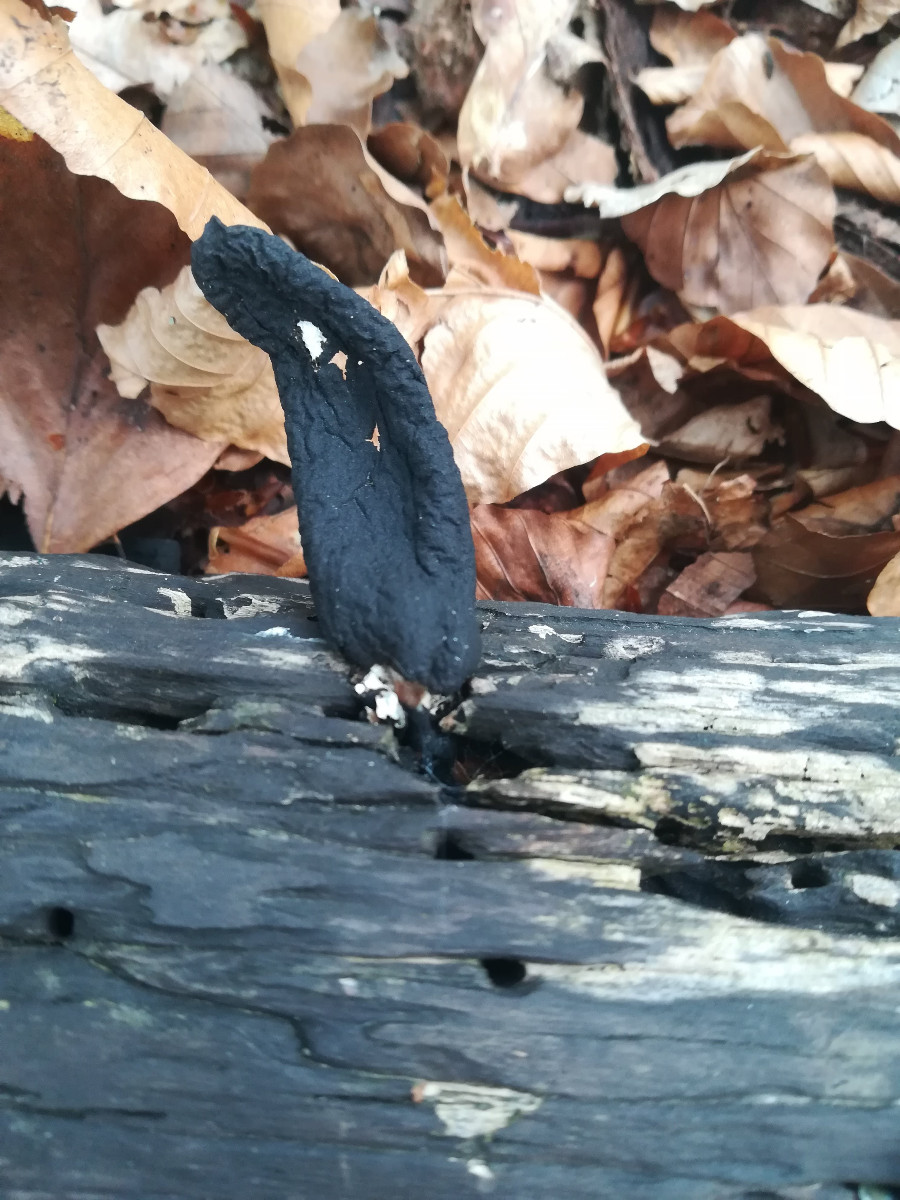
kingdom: Fungi
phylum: Ascomycota
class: Sordariomycetes
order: Xylariales
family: Xylariaceae
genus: Xylaria
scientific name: Xylaria polymorpha
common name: kølle-stødsvamp
